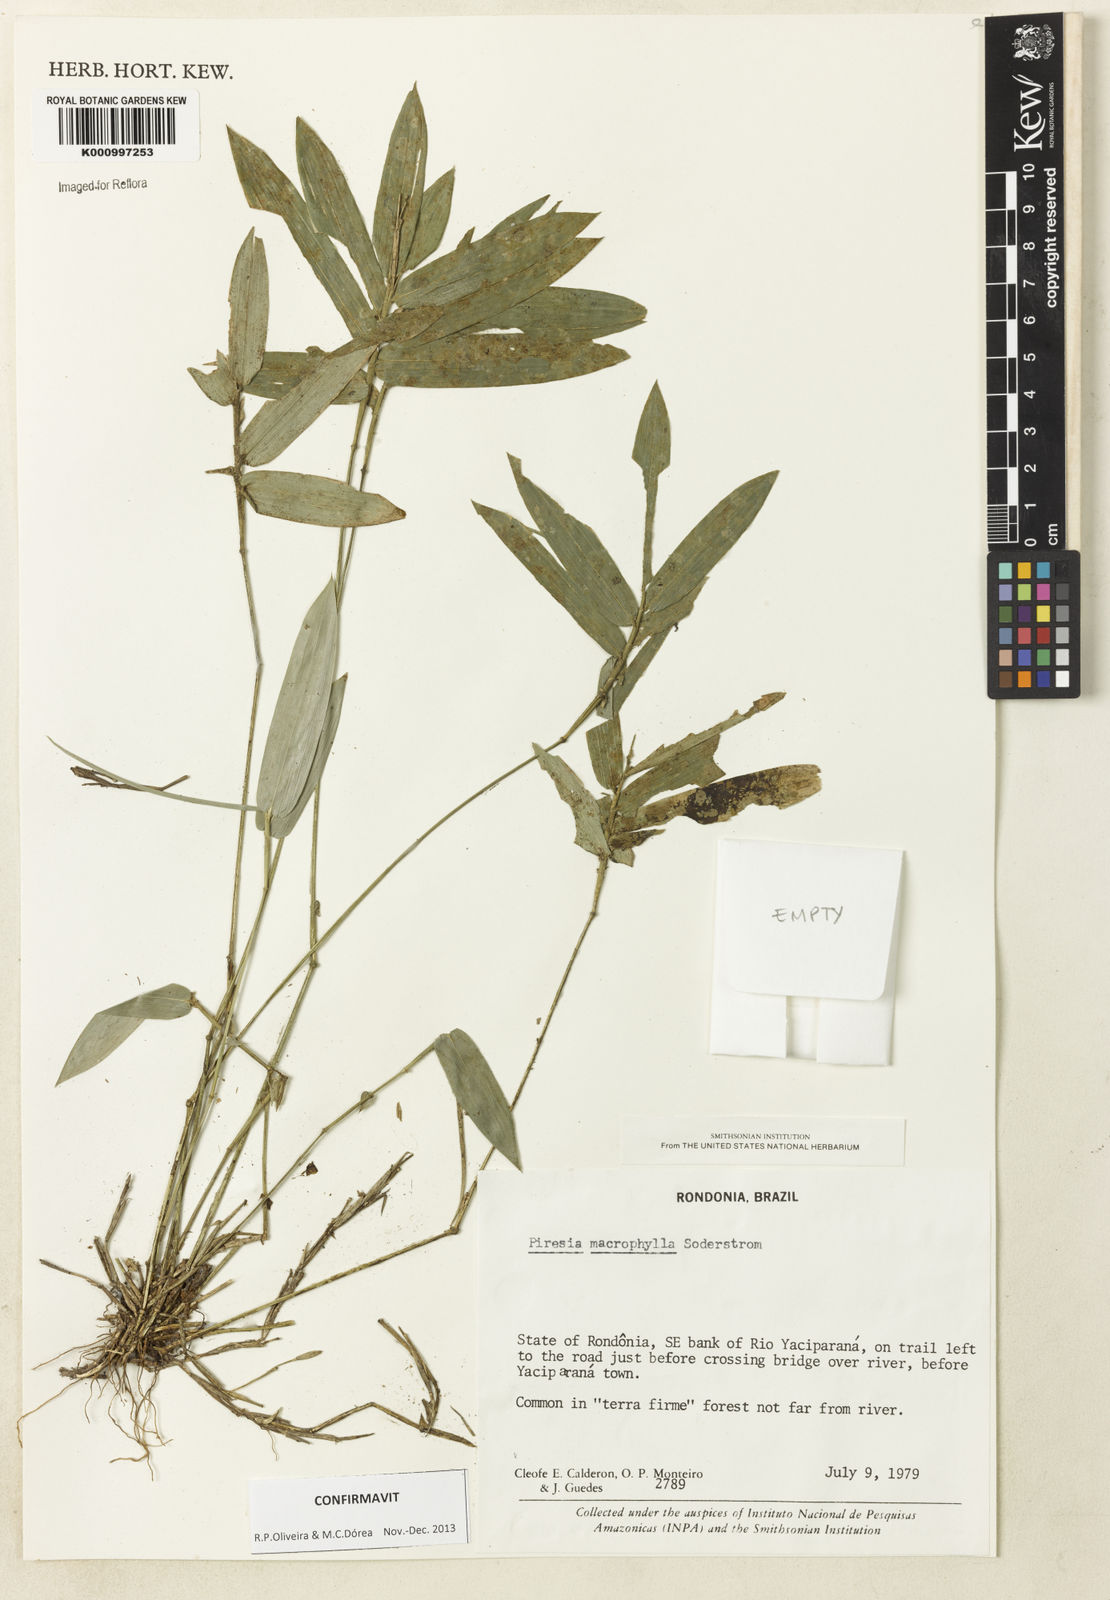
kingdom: Plantae
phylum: Tracheophyta
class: Liliopsida
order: Poales
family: Poaceae
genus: Piresia
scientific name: Piresia macrophylla
